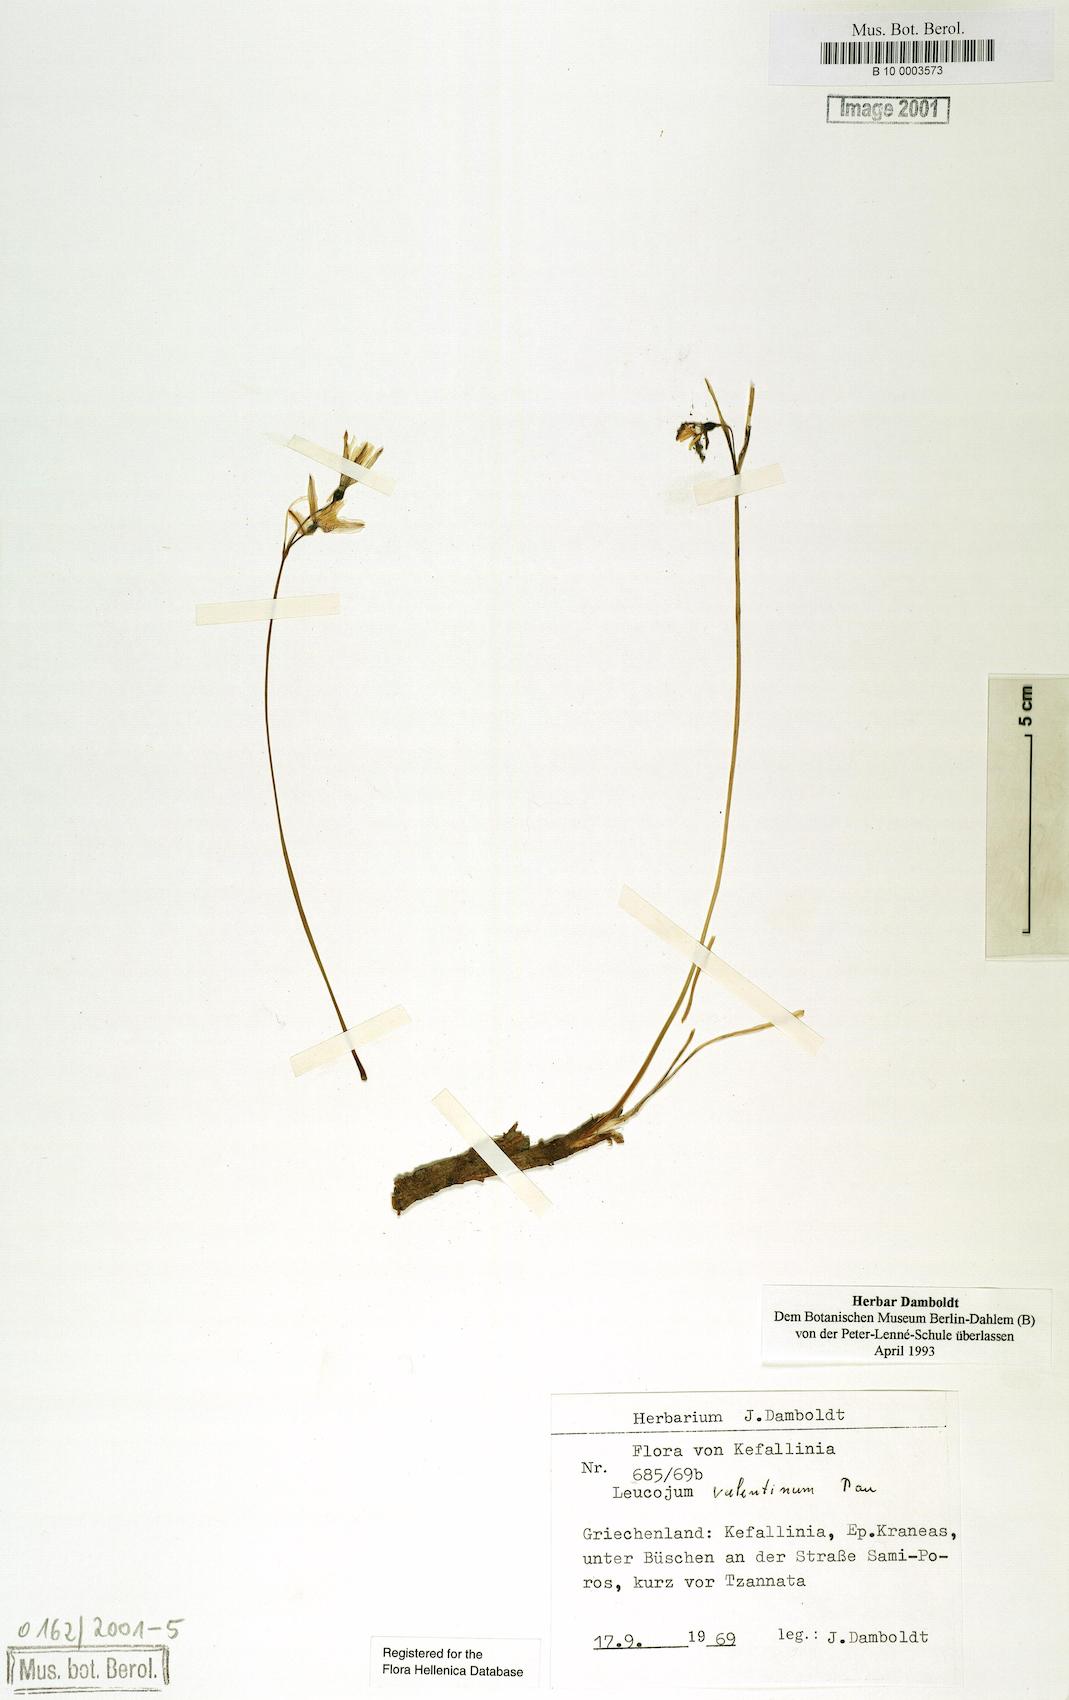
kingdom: Plantae
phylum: Tracheophyta
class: Liliopsida
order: Asparagales
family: Amaryllidaceae
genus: Acis
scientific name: Acis valentina
